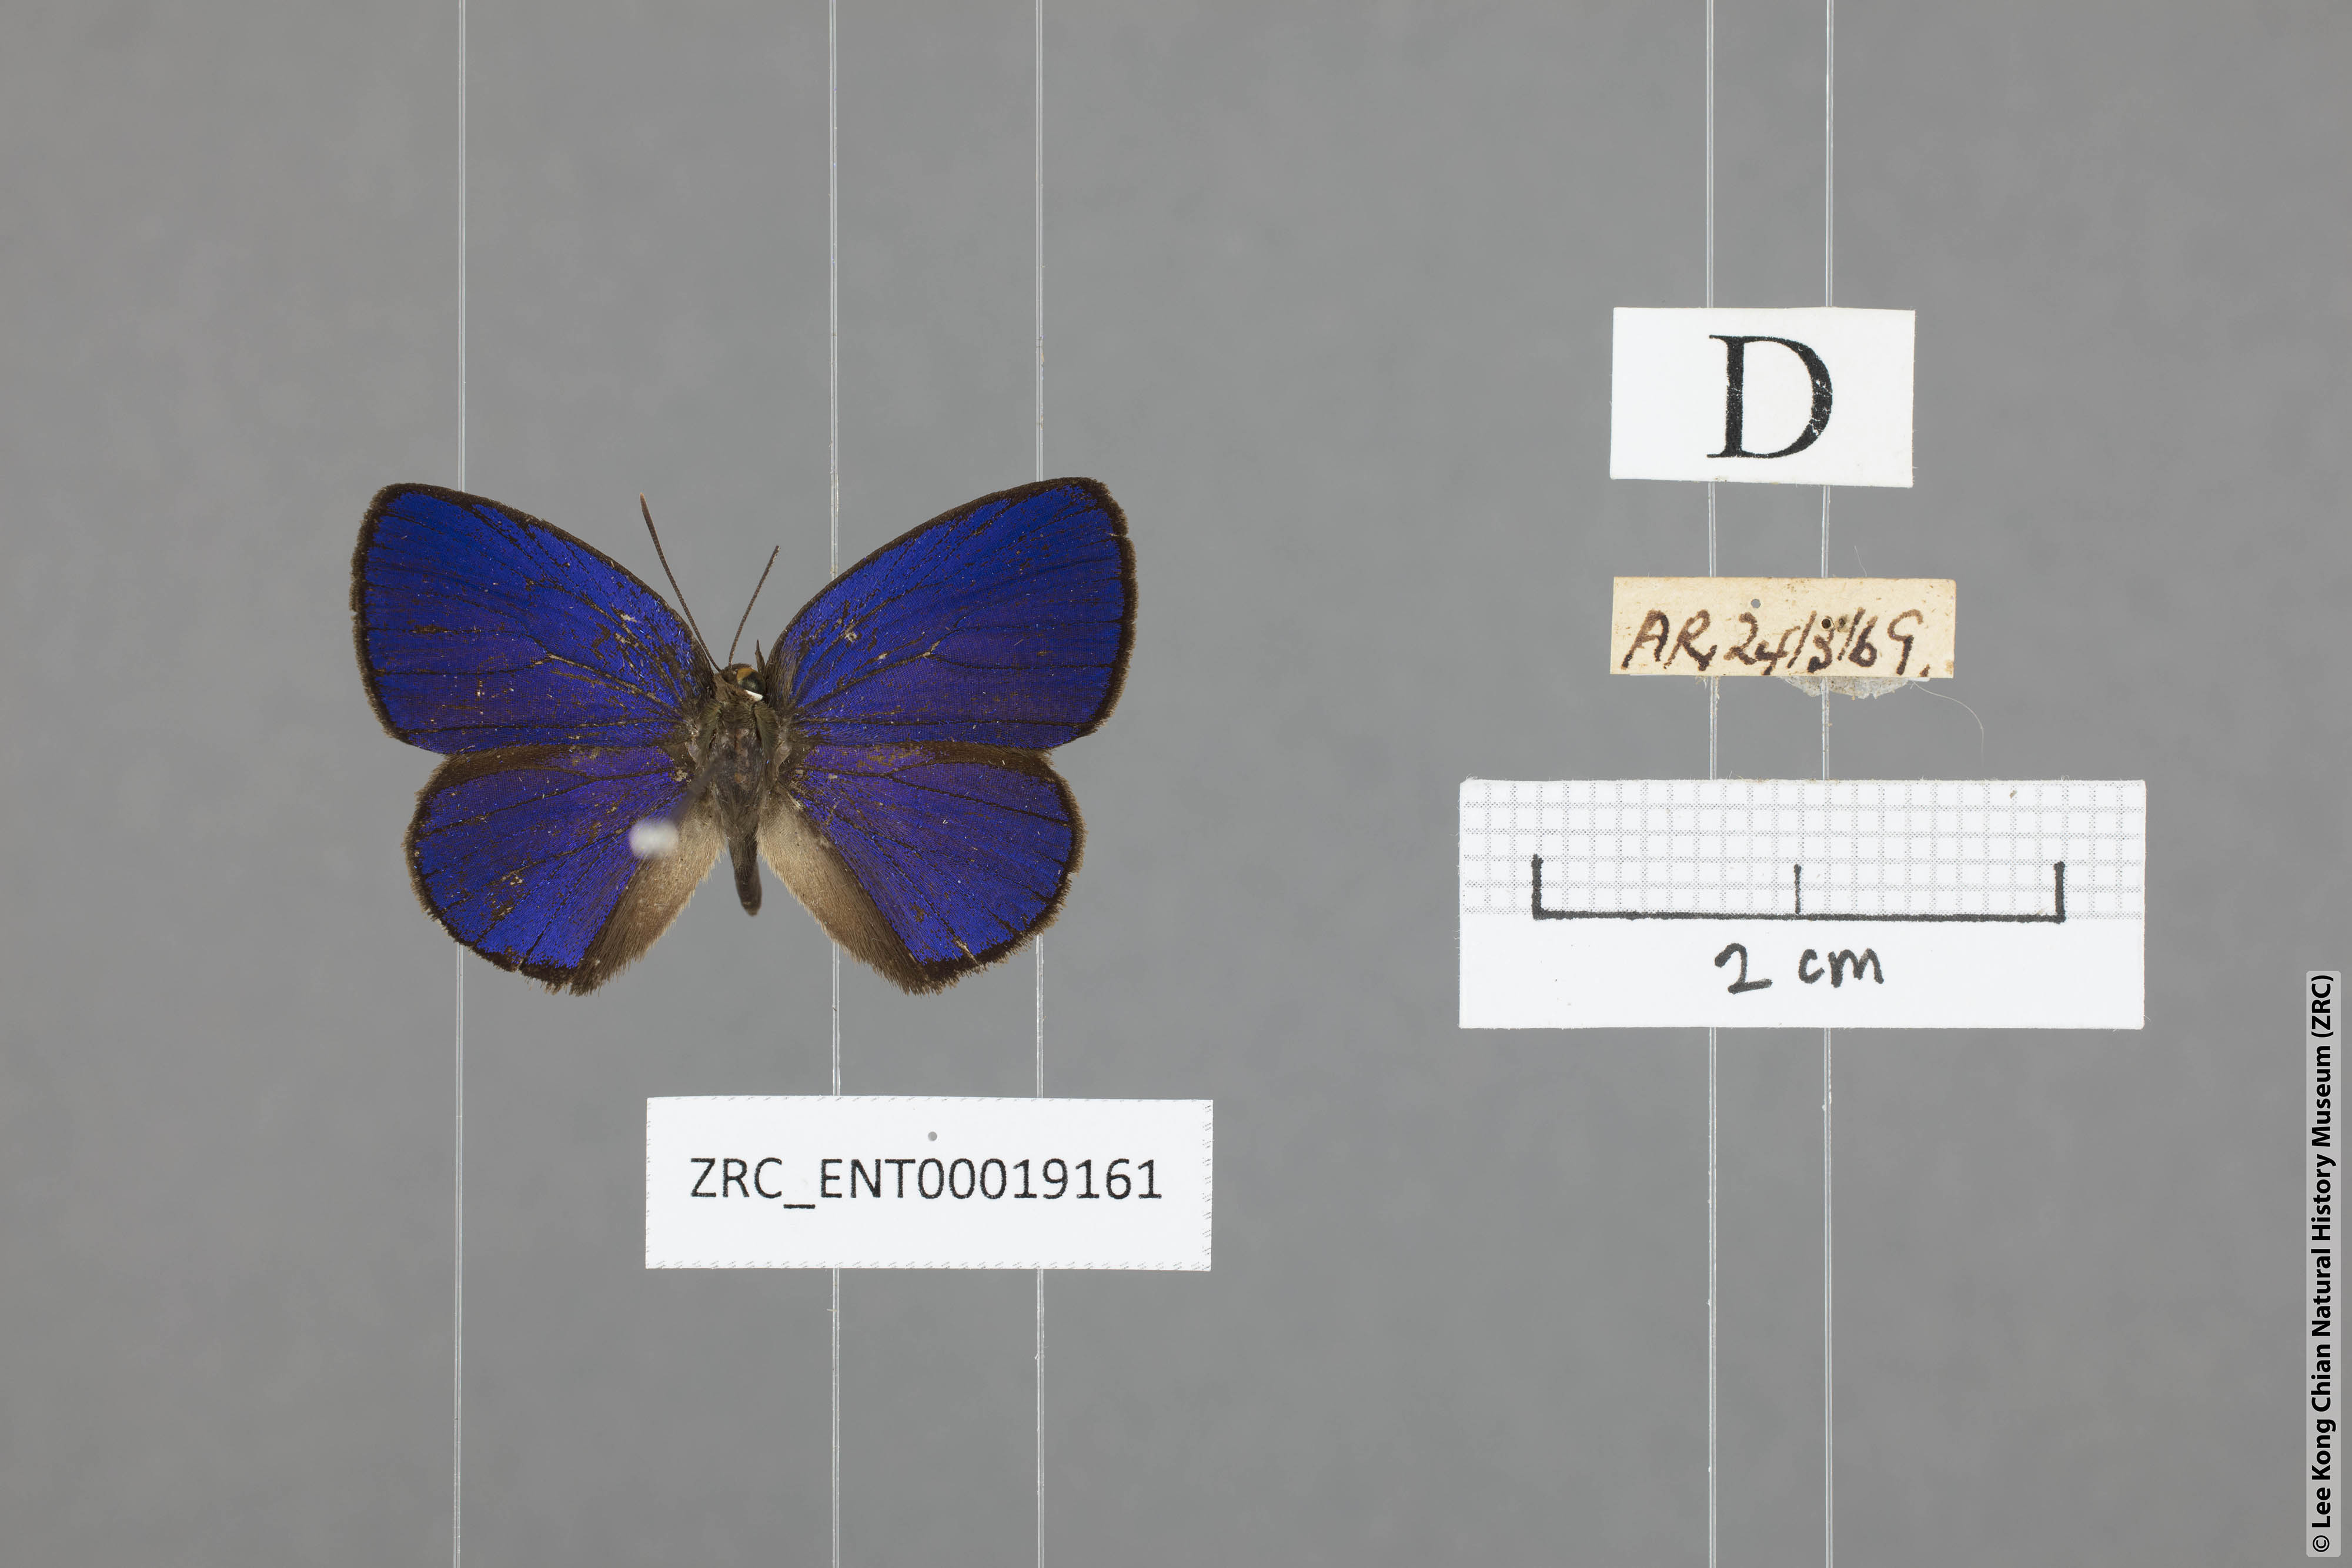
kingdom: Animalia
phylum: Arthropoda
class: Insecta
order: Lepidoptera
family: Lycaenidae
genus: Arhopala
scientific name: Arhopala antimuta
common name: Small tailless oakblue
